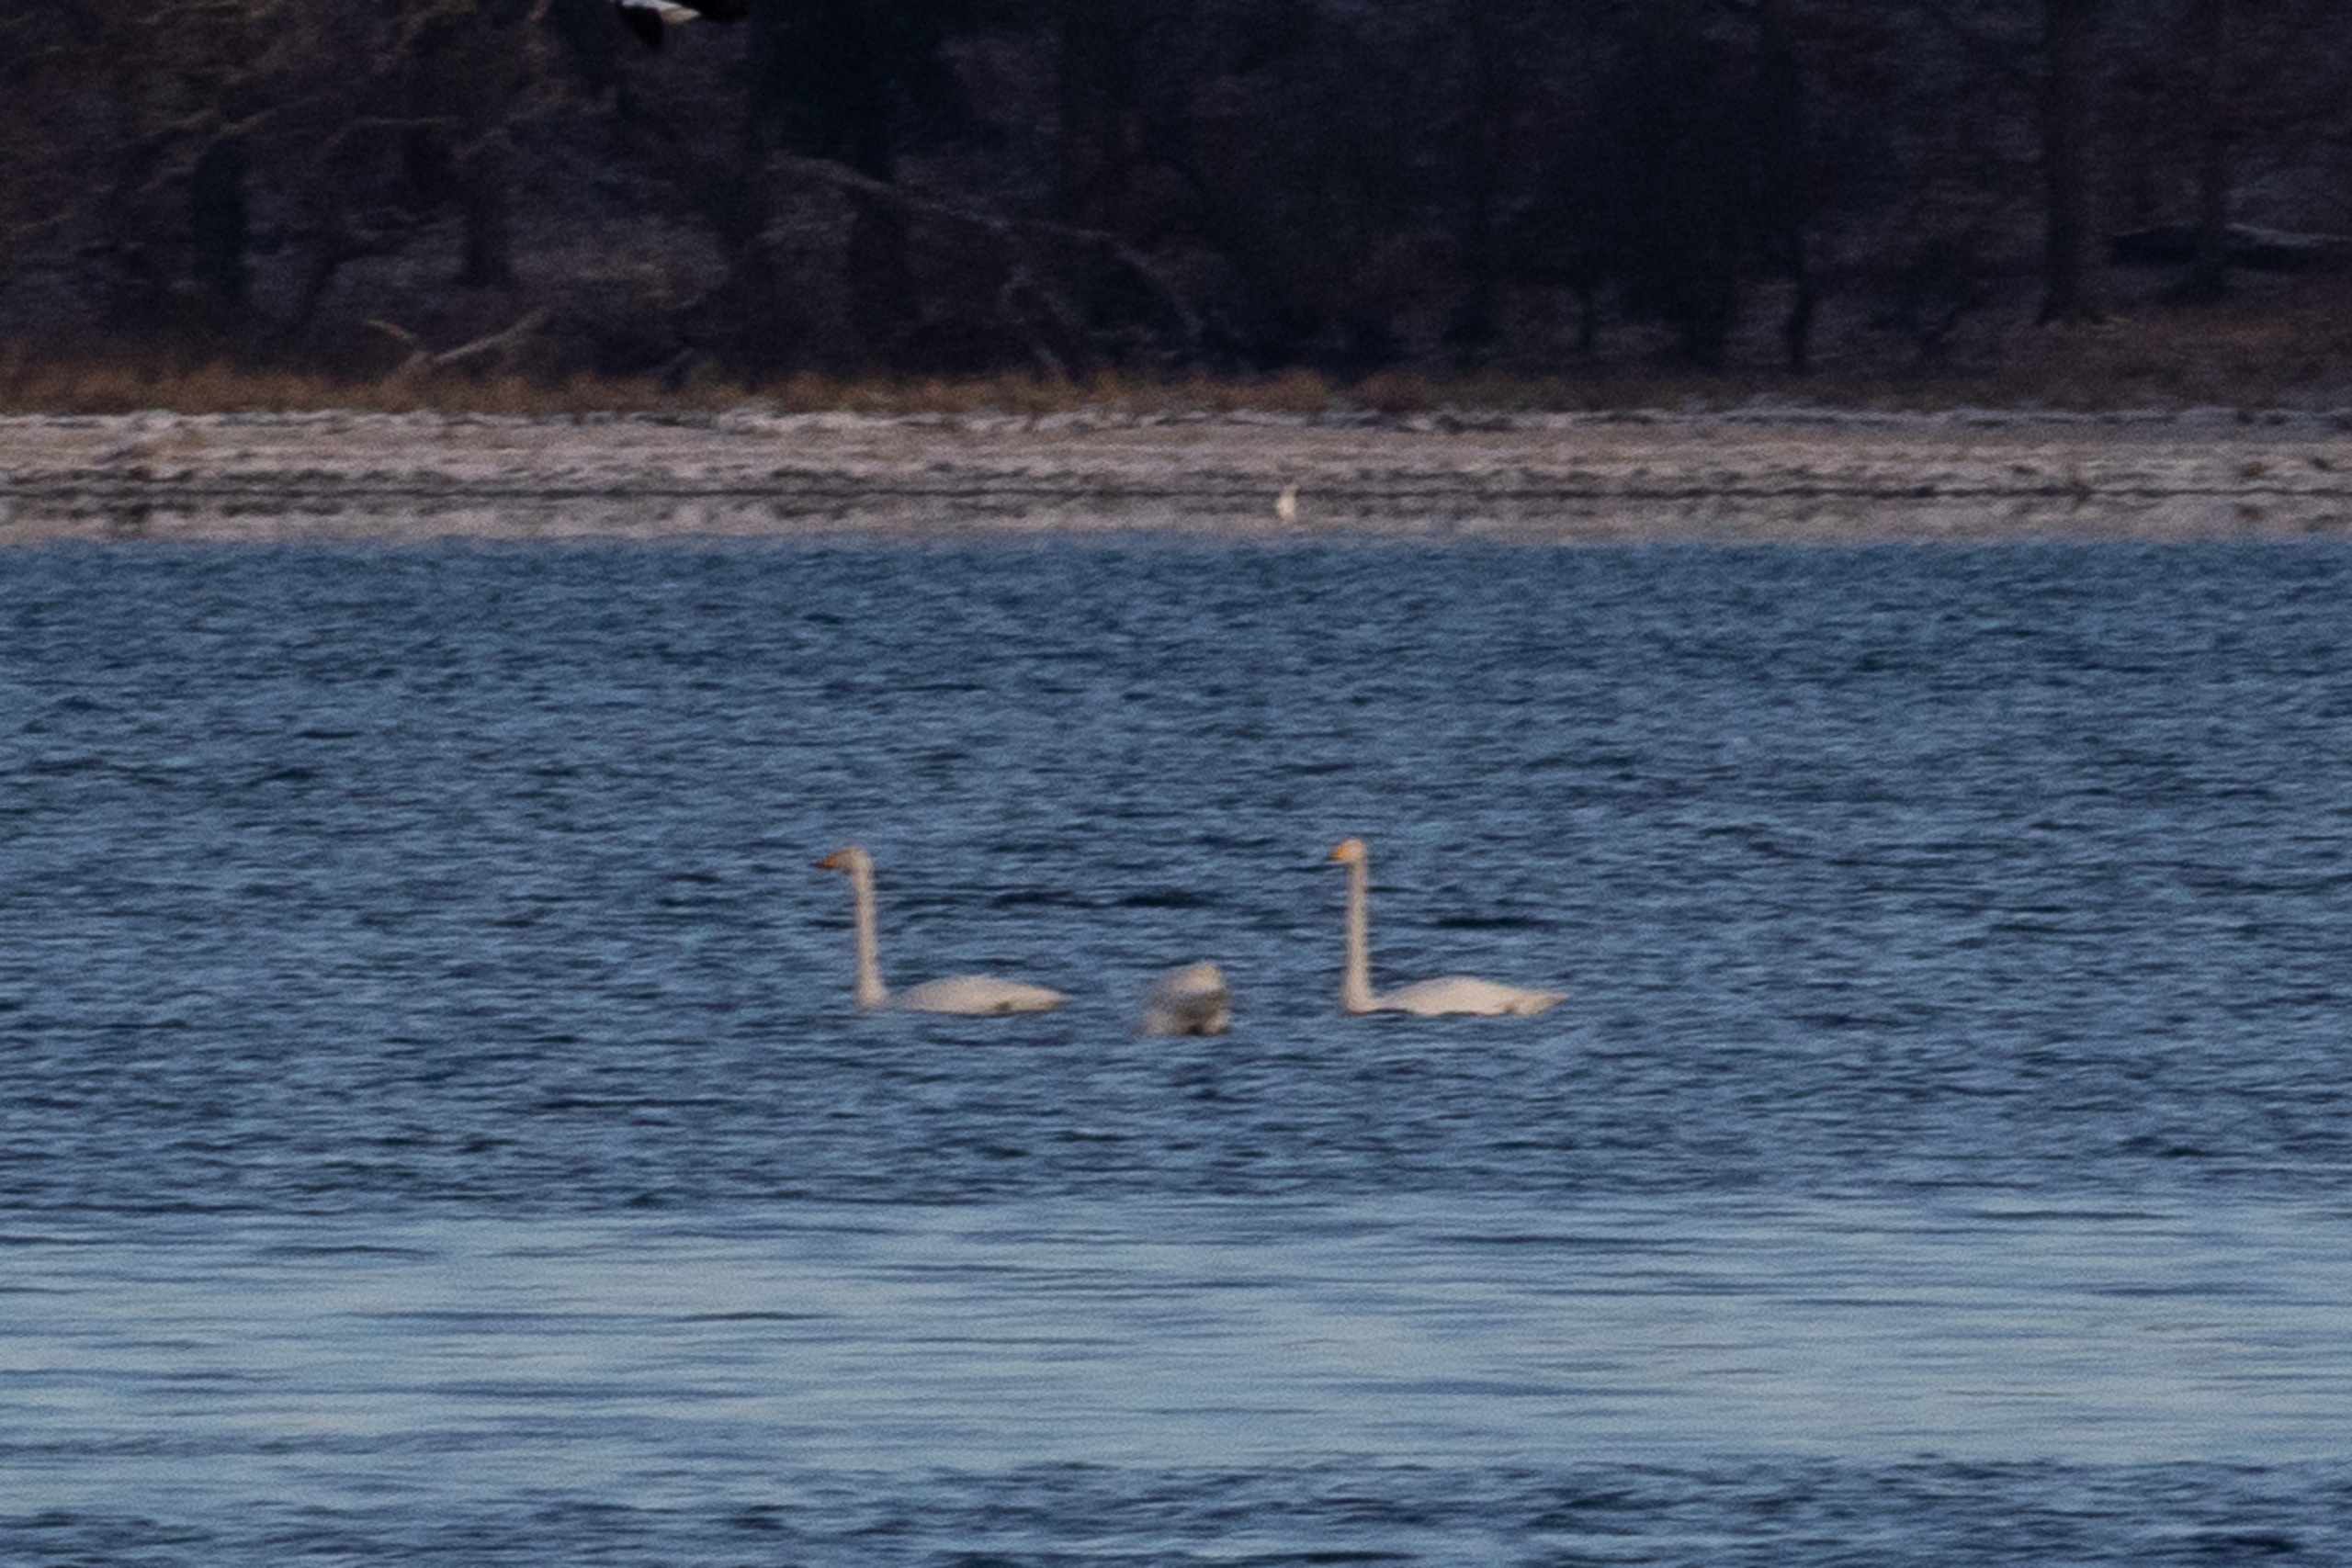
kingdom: Animalia
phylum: Chordata
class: Aves
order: Anseriformes
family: Anatidae
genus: Cygnus
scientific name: Cygnus cygnus
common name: Sangsvane
